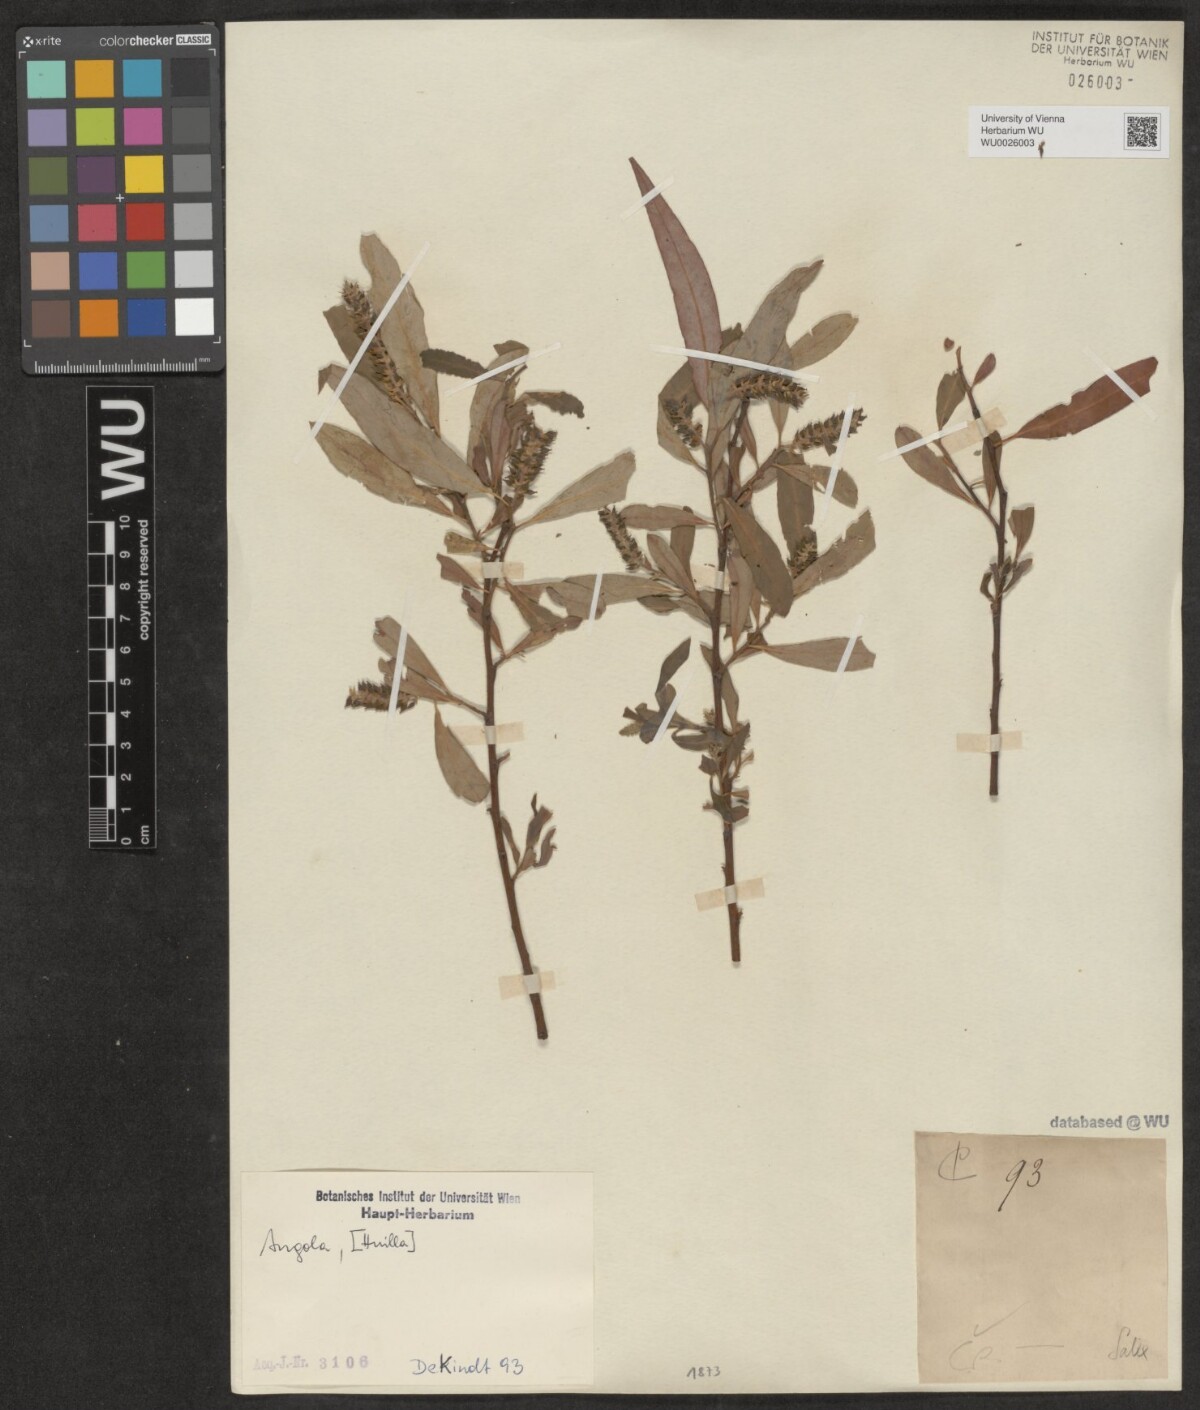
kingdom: Plantae
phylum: Tracheophyta
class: Magnoliopsida
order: Malpighiales
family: Salicaceae
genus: Salix
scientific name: Salix
